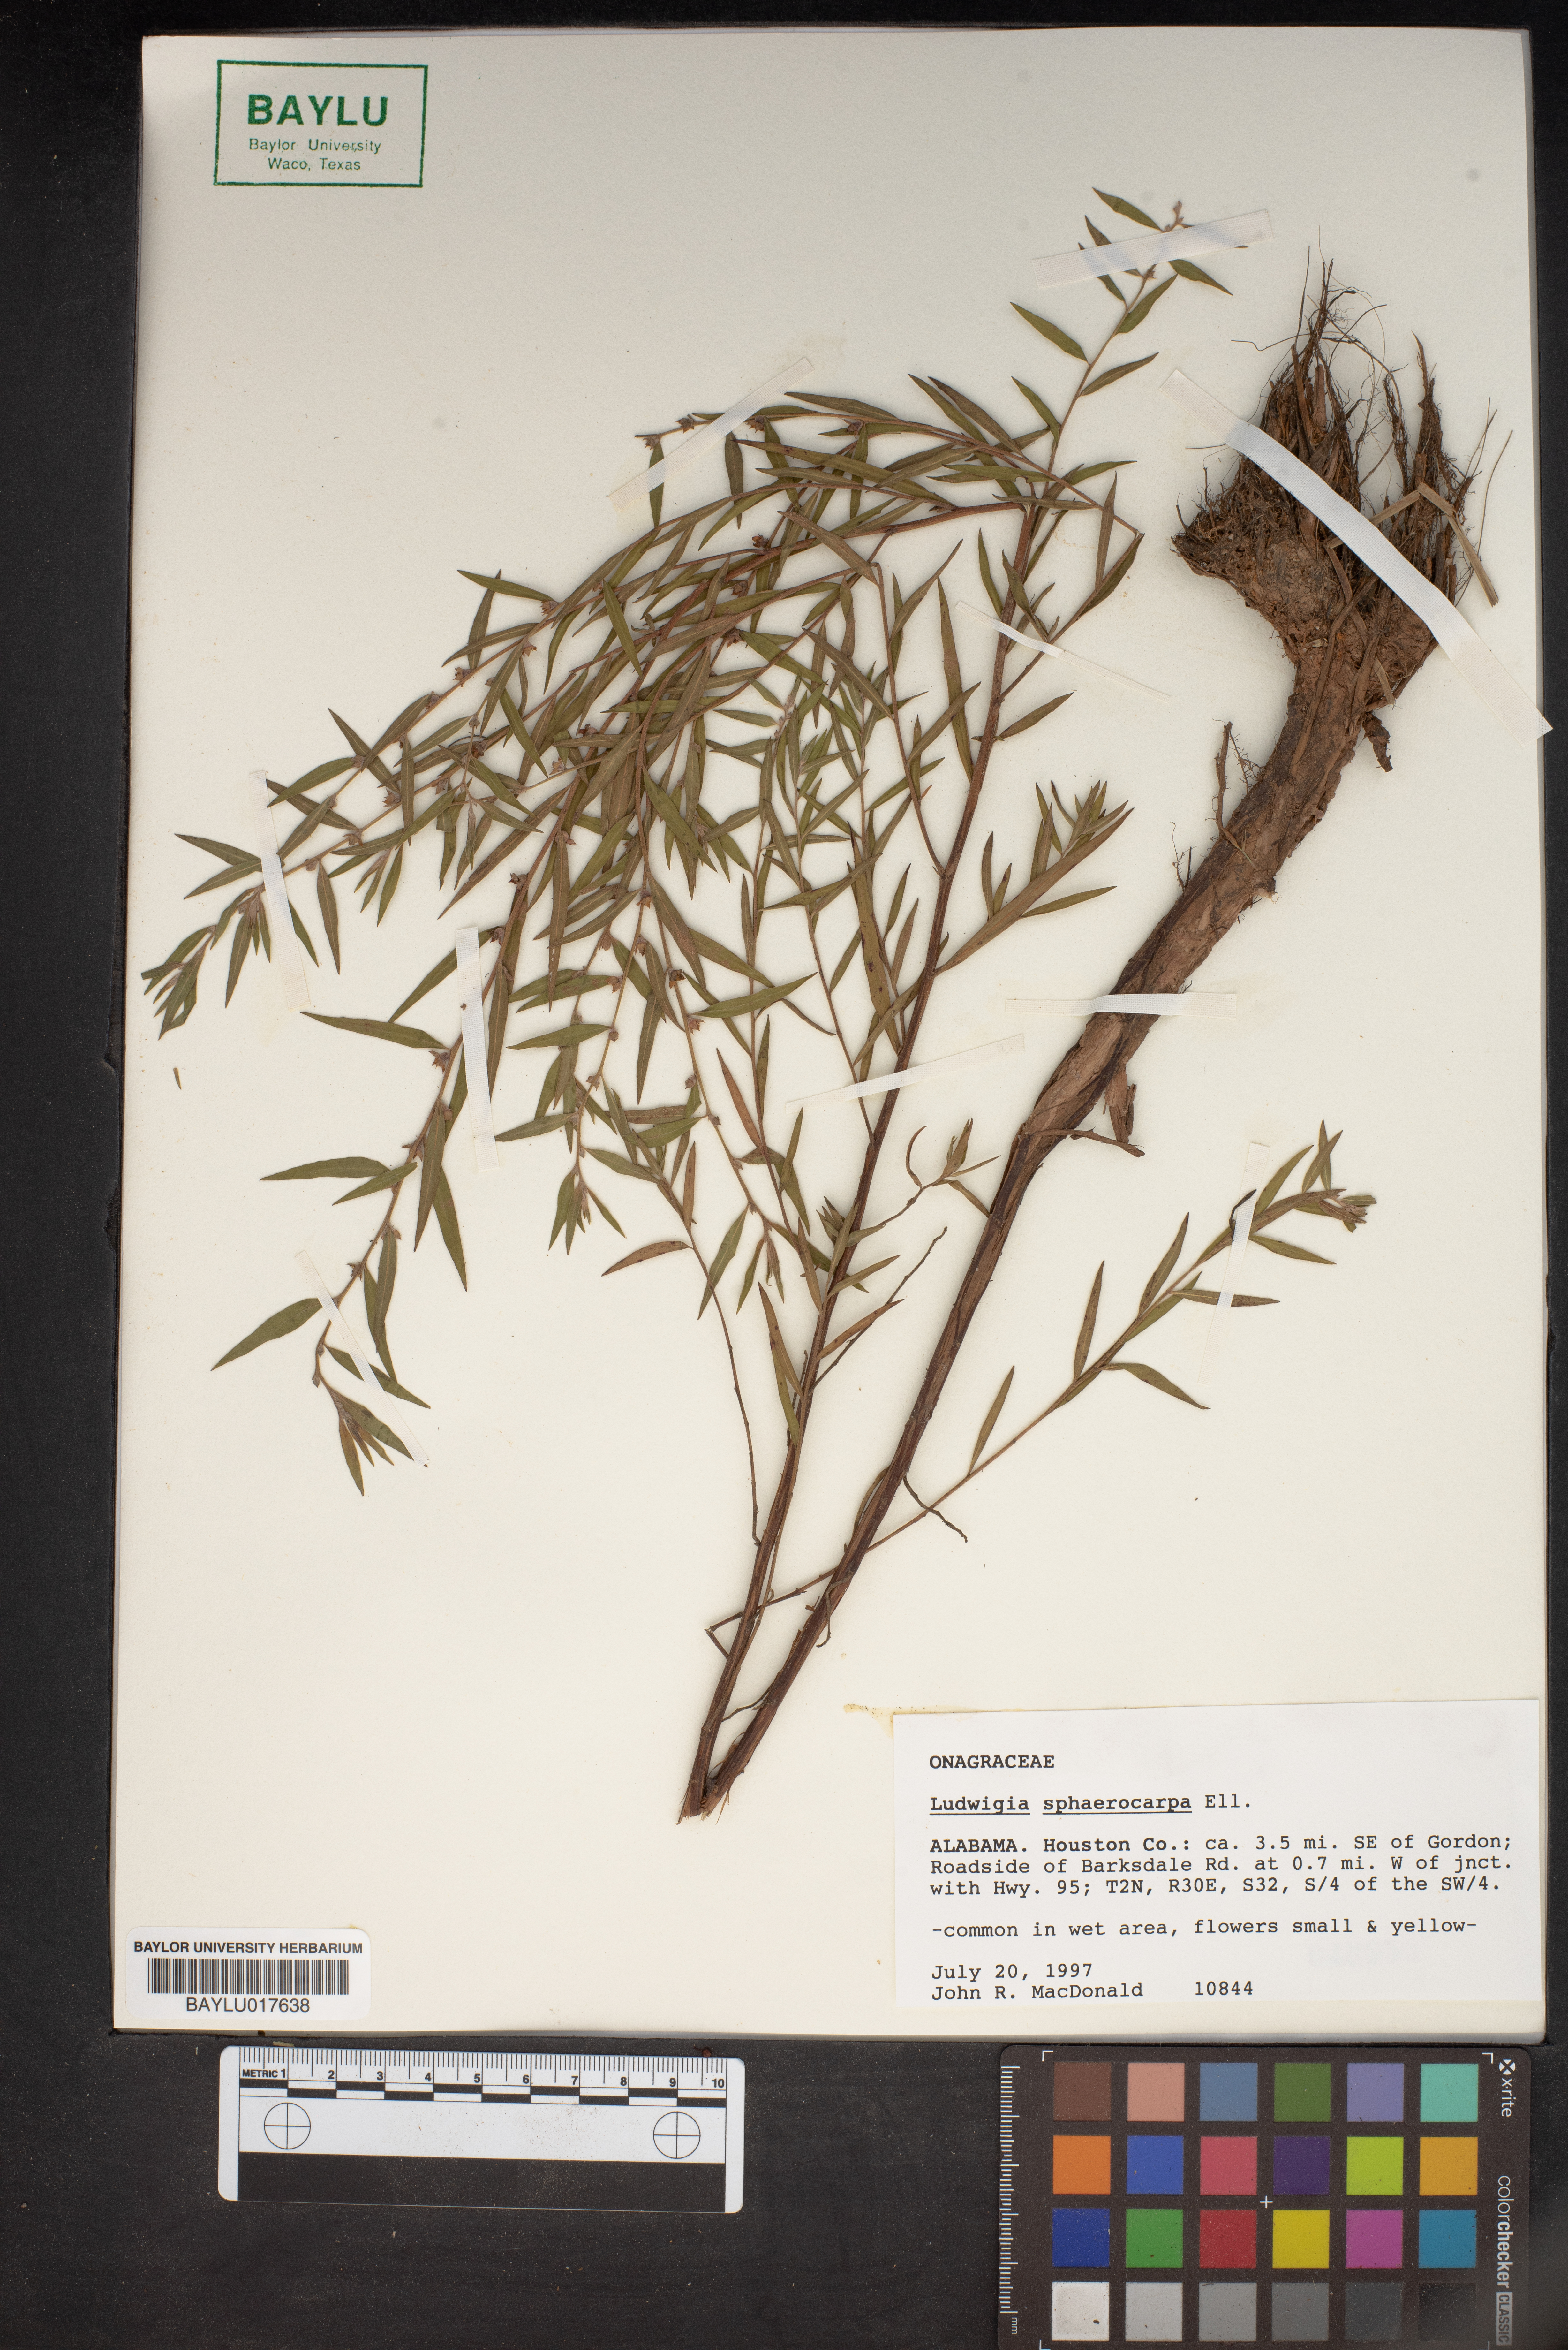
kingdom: Plantae
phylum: Tracheophyta
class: Magnoliopsida
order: Myrtales
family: Onagraceae
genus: Ludwigia
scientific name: Ludwigia sphaerocarpa
